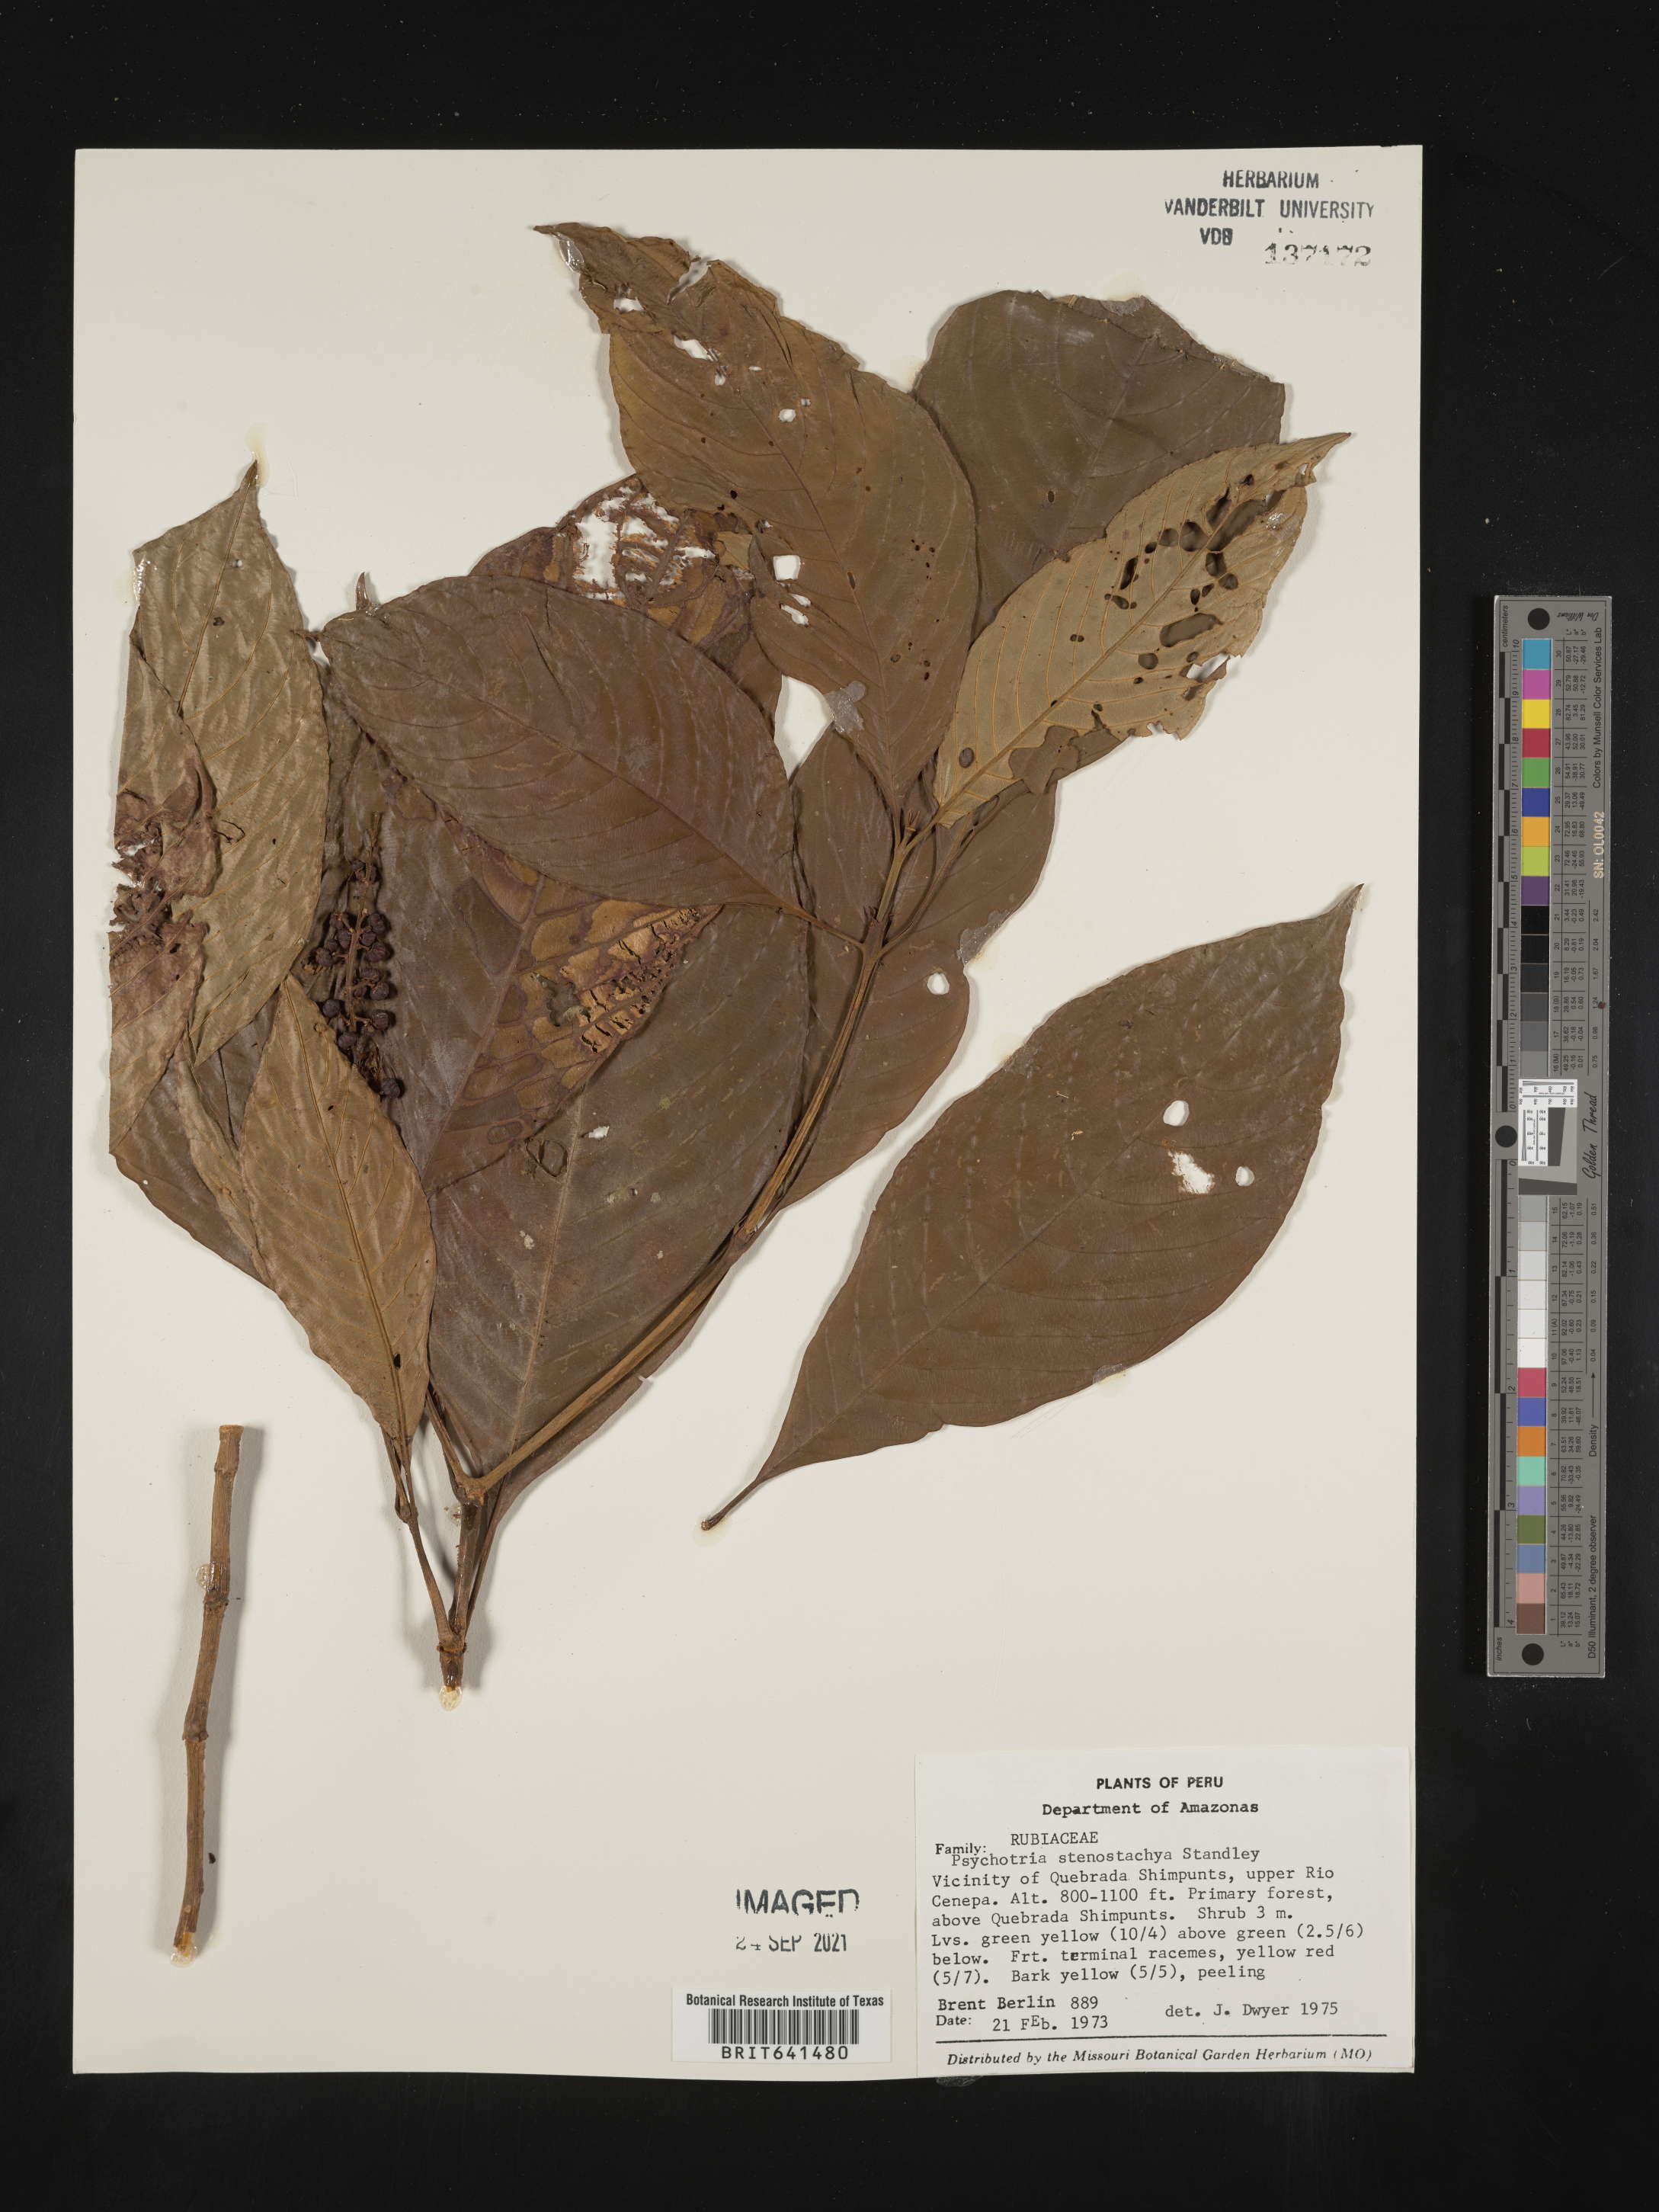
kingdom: Plantae
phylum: Tracheophyta
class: Magnoliopsida
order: Gentianales
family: Rubiaceae
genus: Psychotria
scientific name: Psychotria
